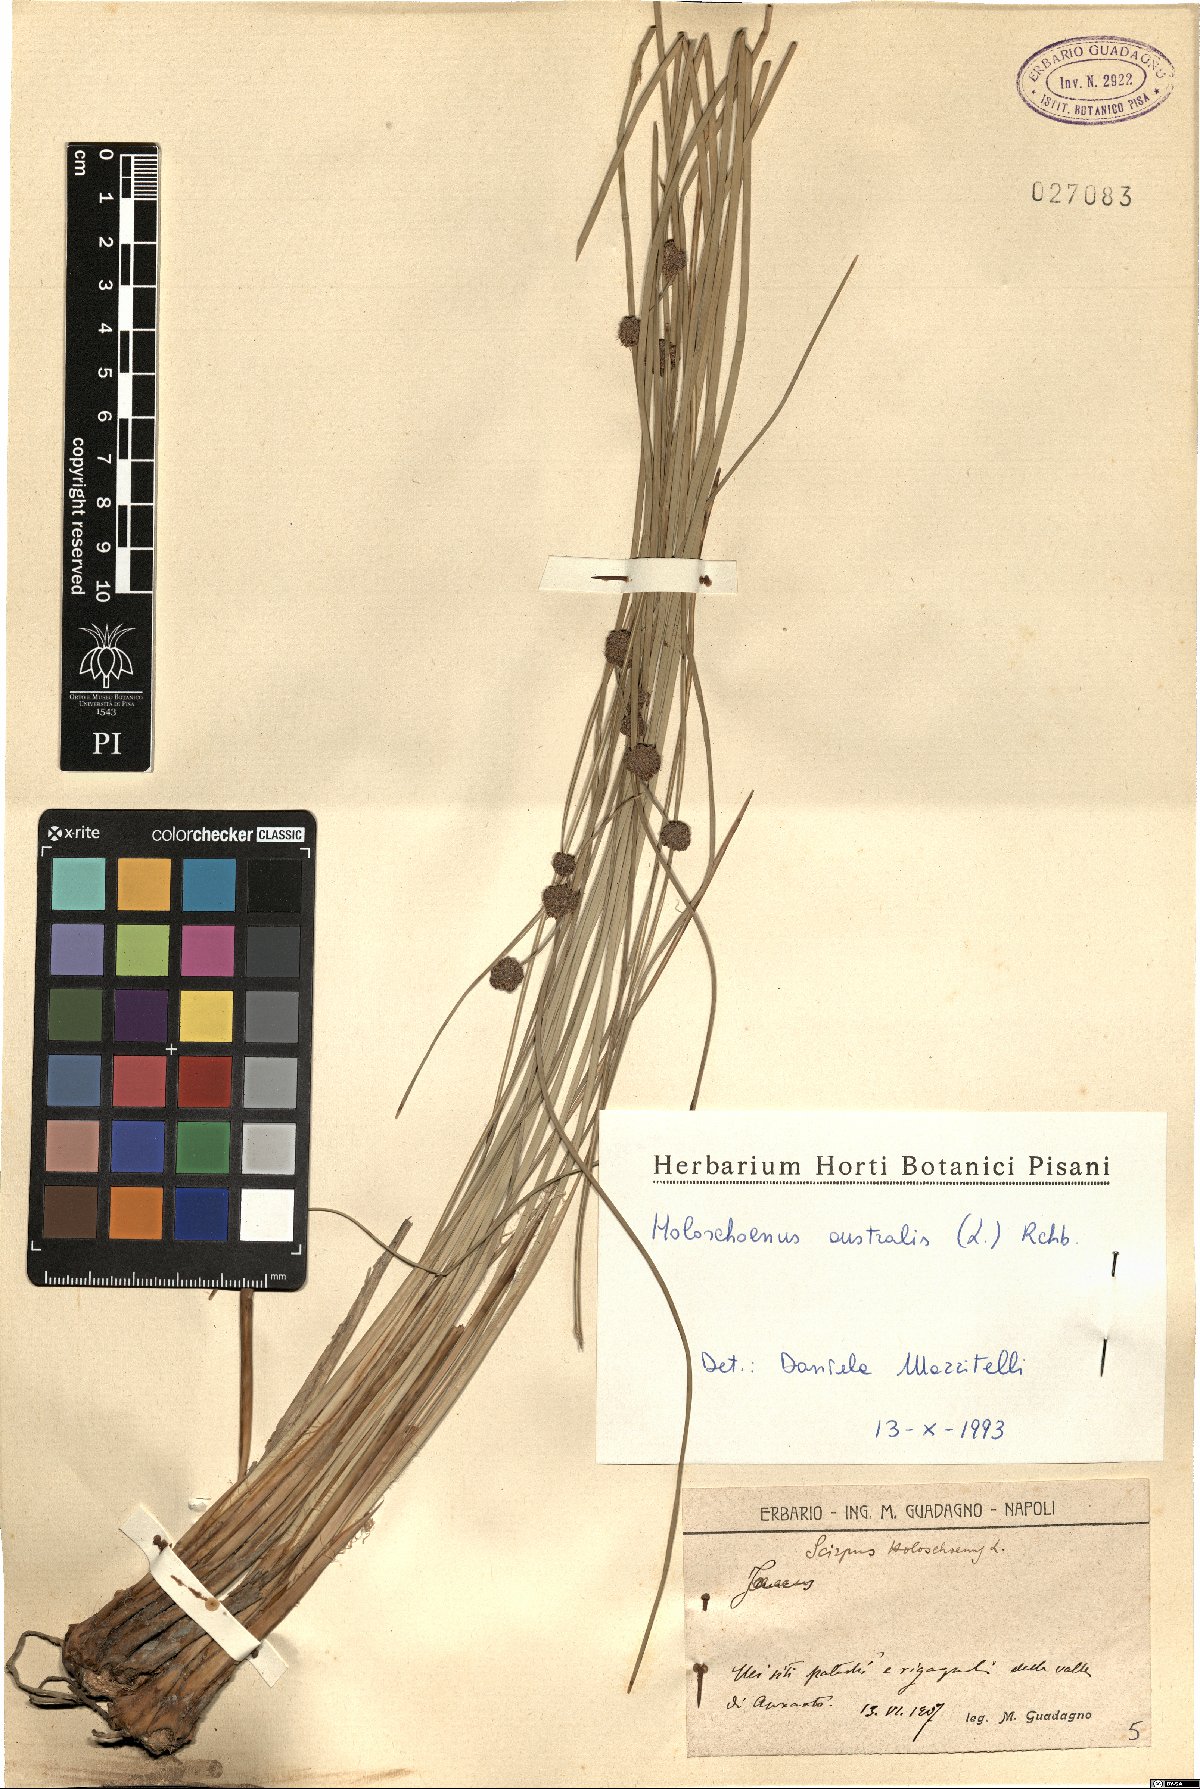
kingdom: Plantae
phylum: Tracheophyta
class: Liliopsida
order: Poales
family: Cyperaceae
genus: Scirpoides
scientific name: Scirpoides holoschoenus
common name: Round-headed club-rush
